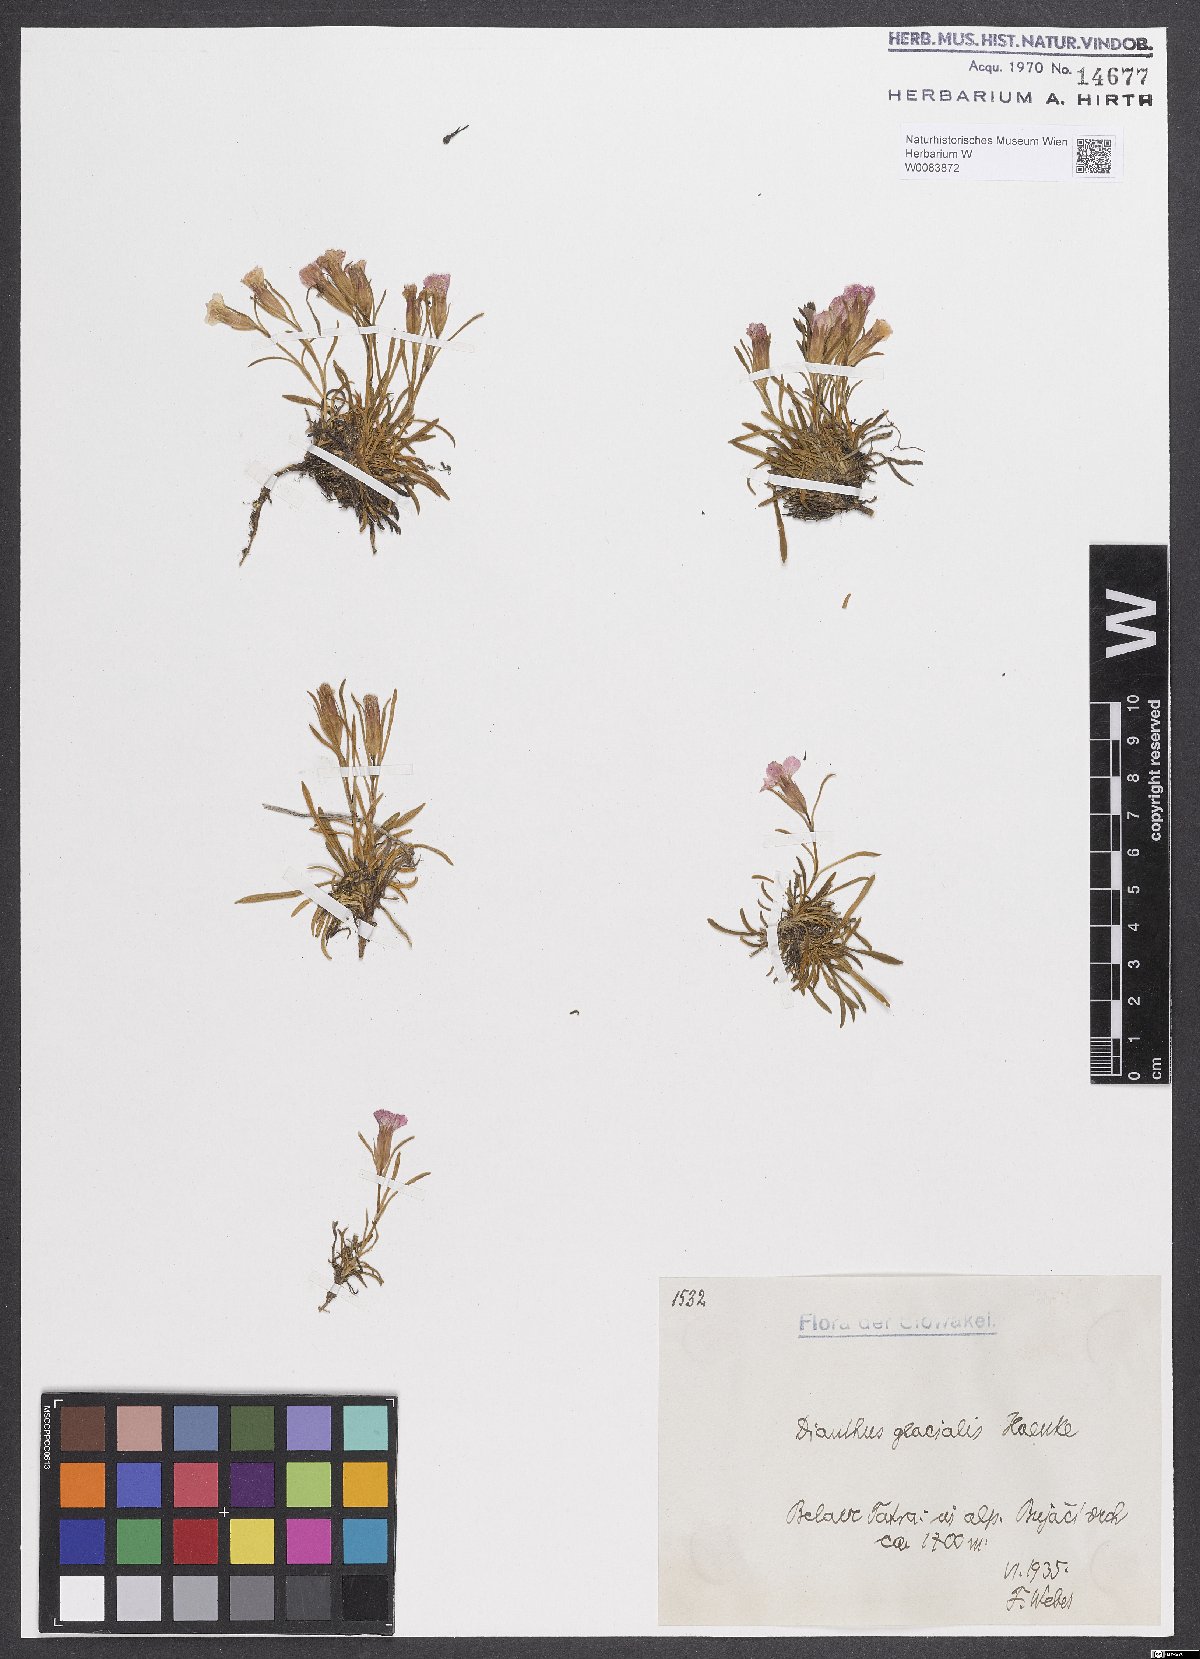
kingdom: Plantae
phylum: Tracheophyta
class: Magnoliopsida
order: Caryophyllales
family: Caryophyllaceae
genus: Dianthus
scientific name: Dianthus glacialis
